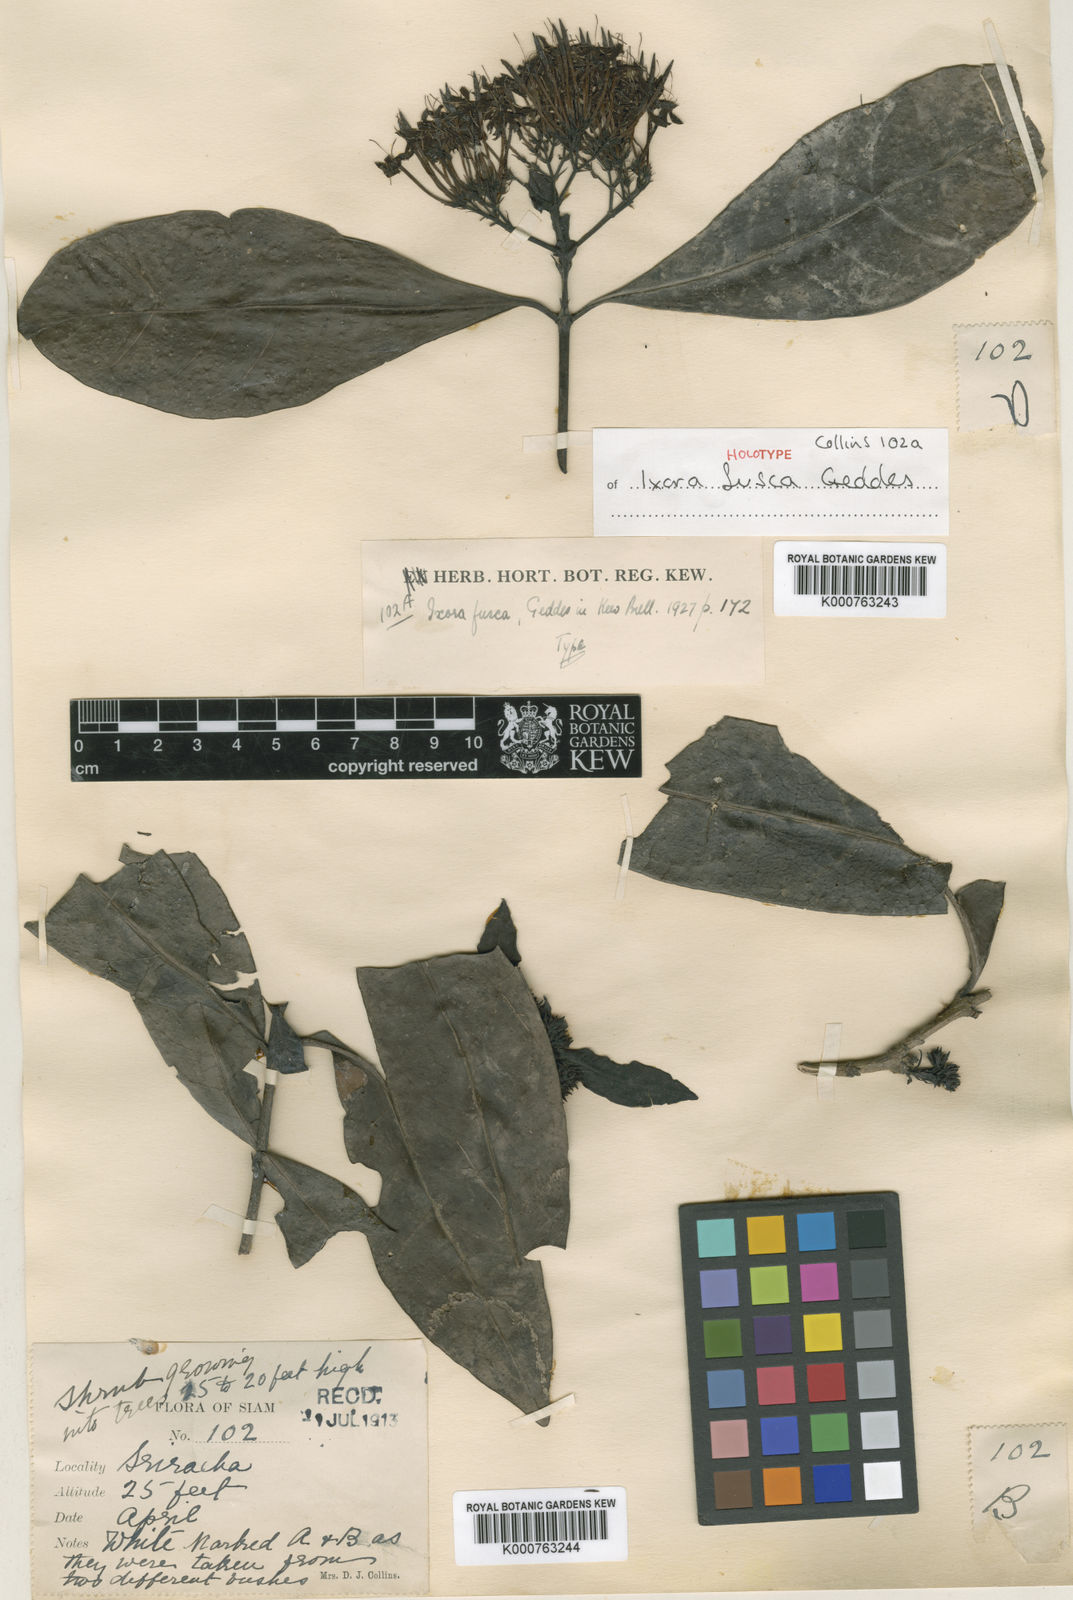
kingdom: Plantae
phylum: Tracheophyta
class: Magnoliopsida
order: Gentianales
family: Rubiaceae
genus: Ixora
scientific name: Ixora fusca
